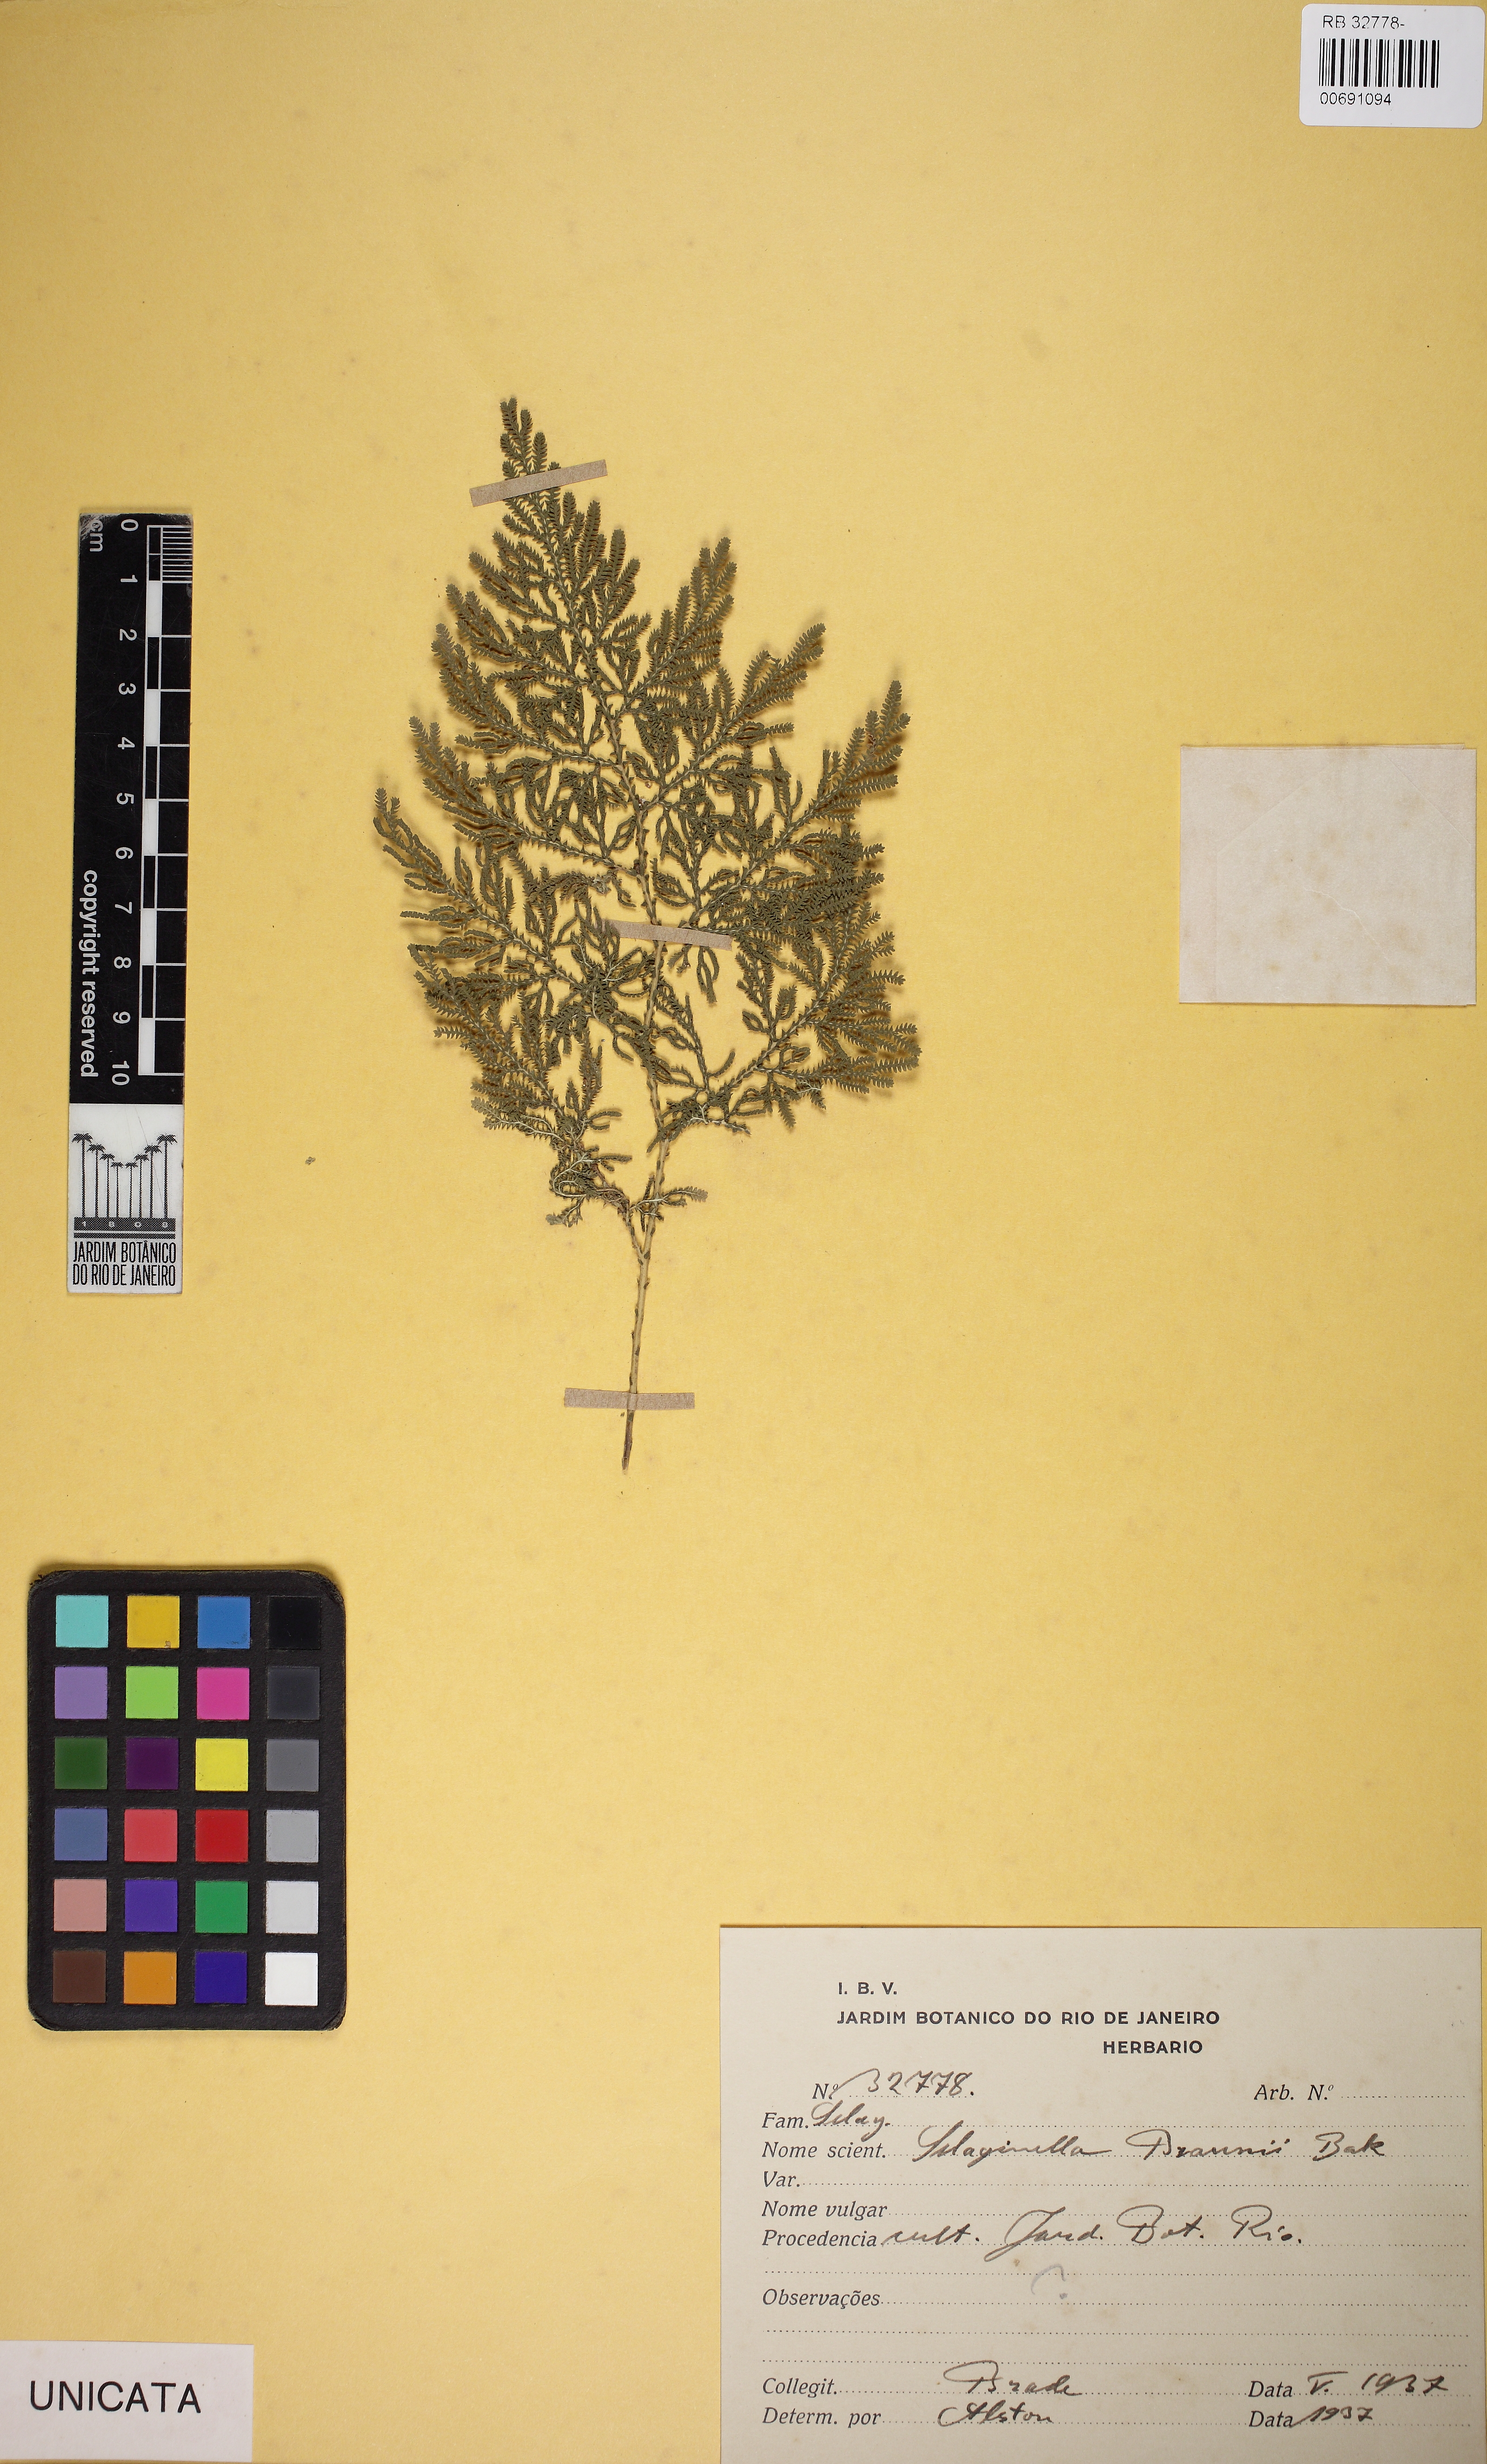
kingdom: Plantae
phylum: Tracheophyta
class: Lycopodiopsida
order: Selaginellales
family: Selaginellaceae
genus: Selaginella
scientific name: Selaginella braunii
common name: Braun's spikemoss
